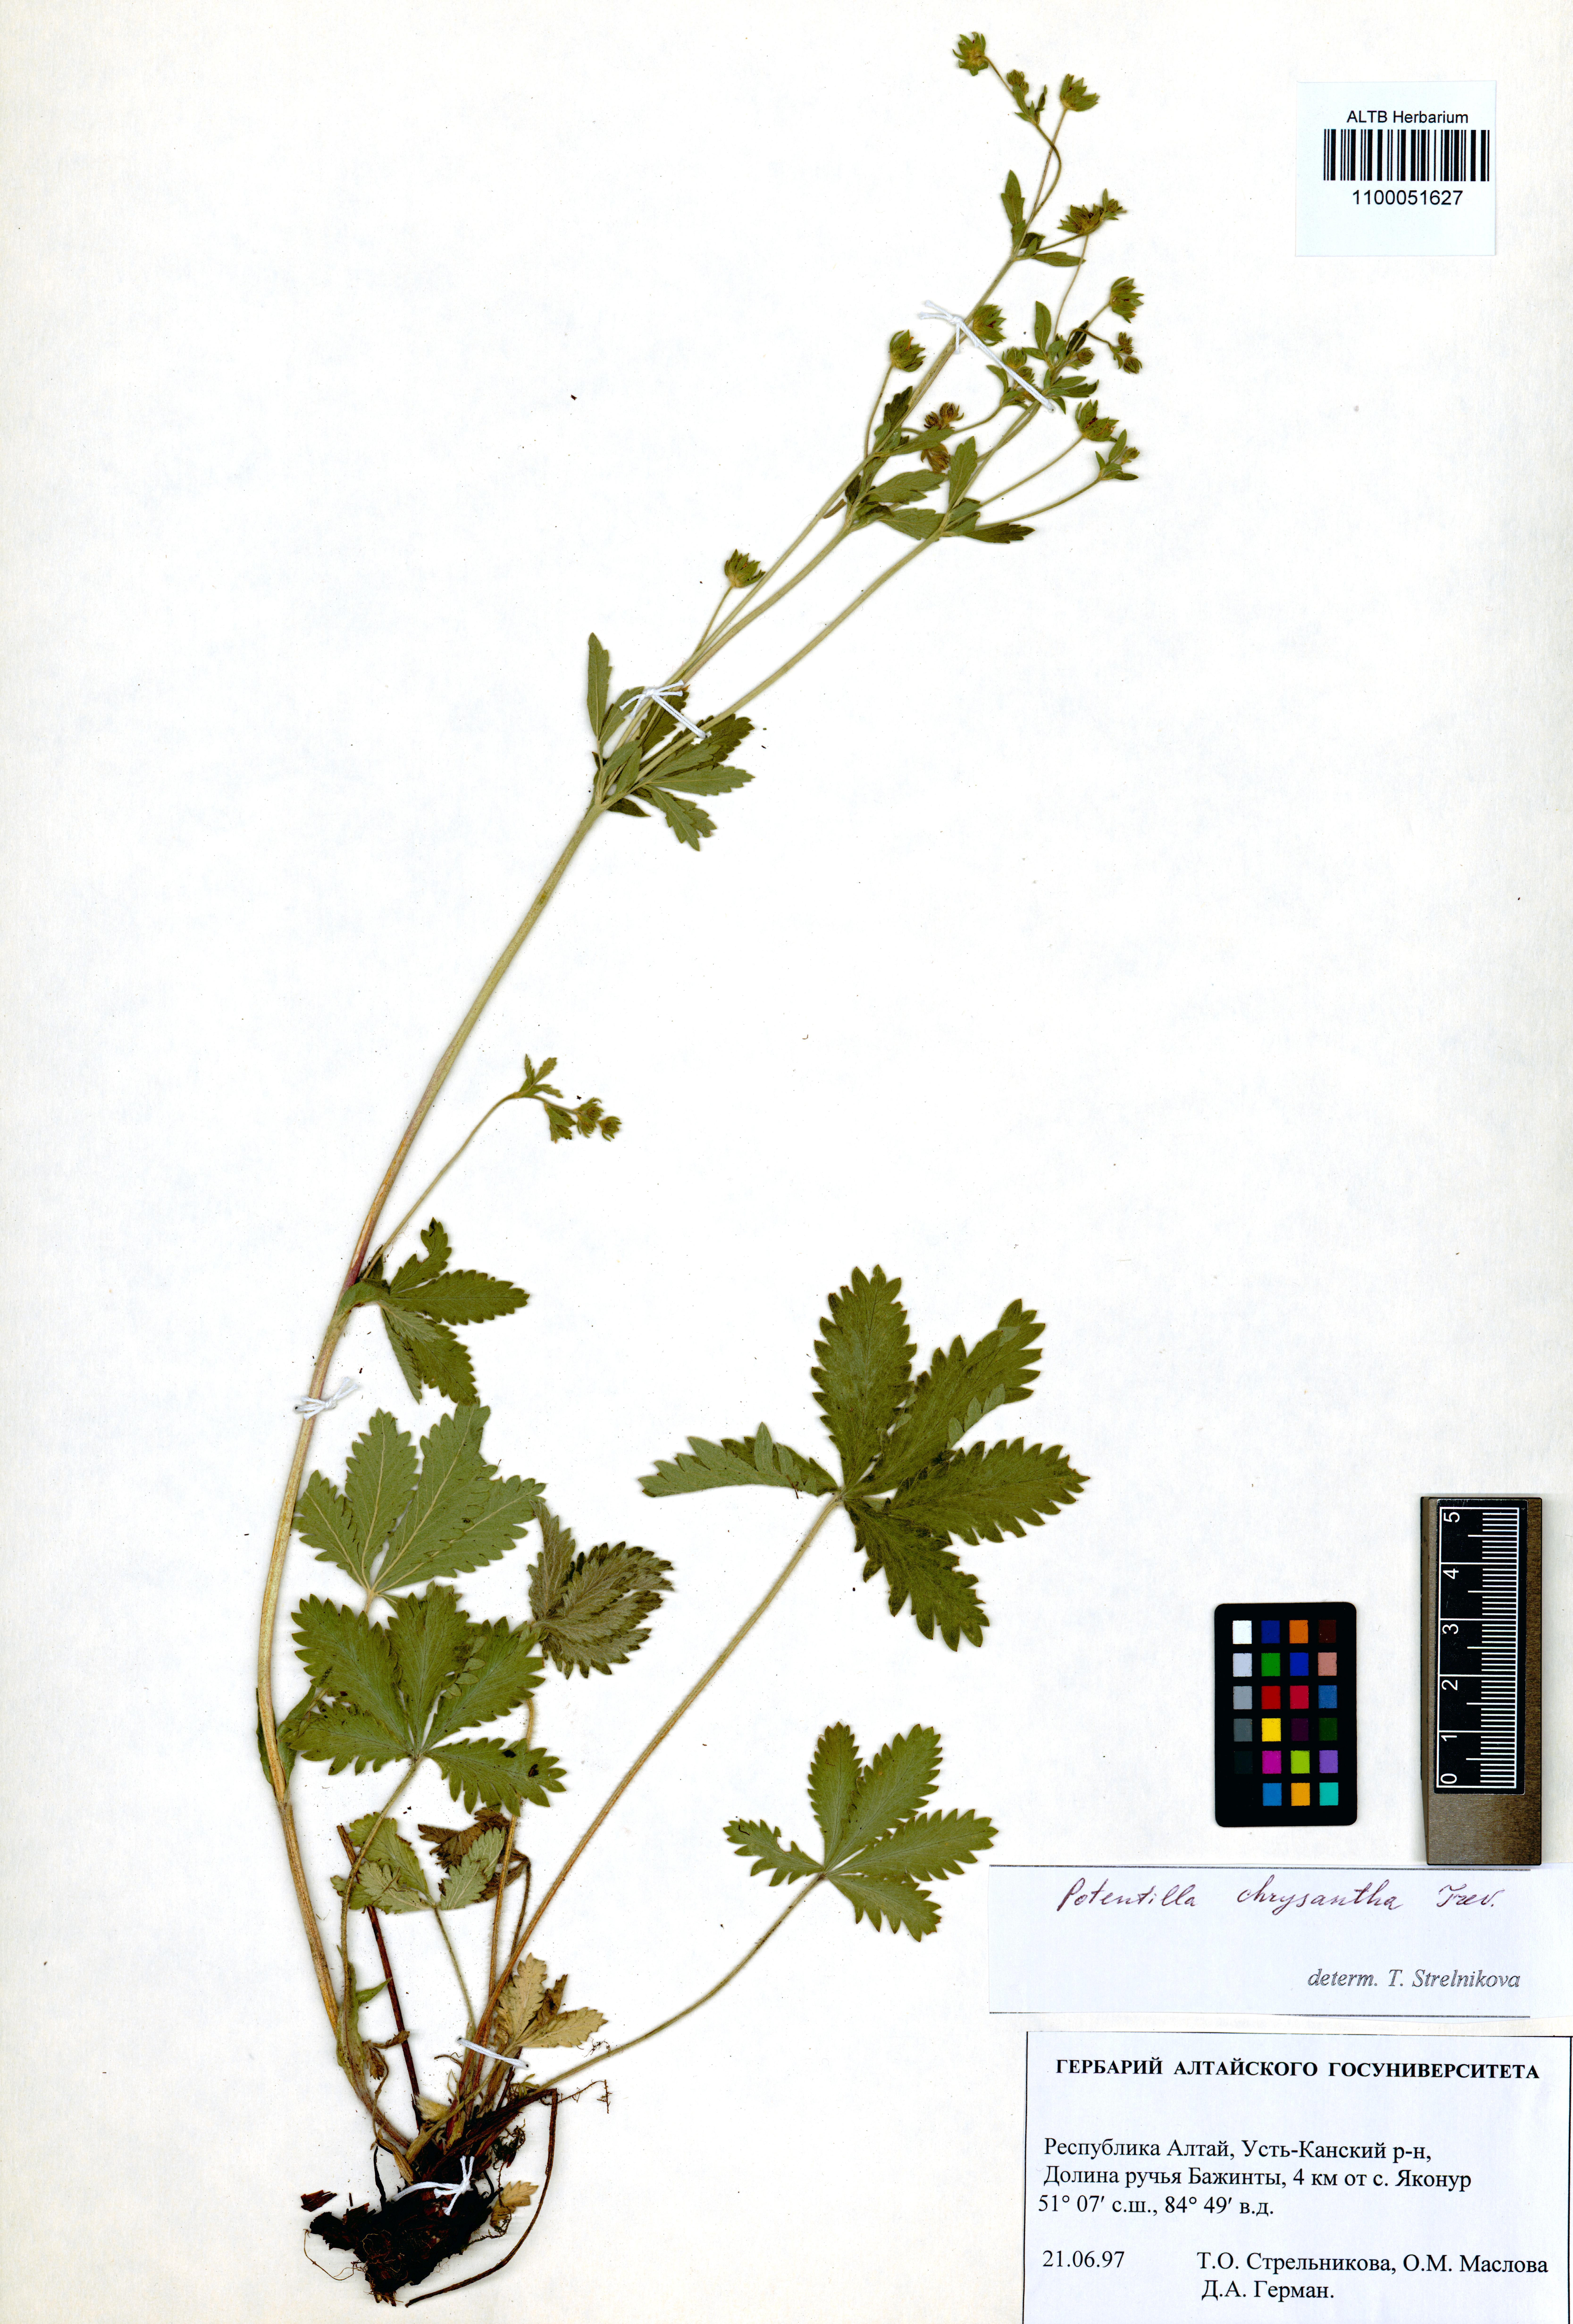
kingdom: Plantae
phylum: Tracheophyta
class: Magnoliopsida
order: Rosales
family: Rosaceae
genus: Potentilla
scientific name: Potentilla chrysantha
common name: Thuringian cinquefoil
